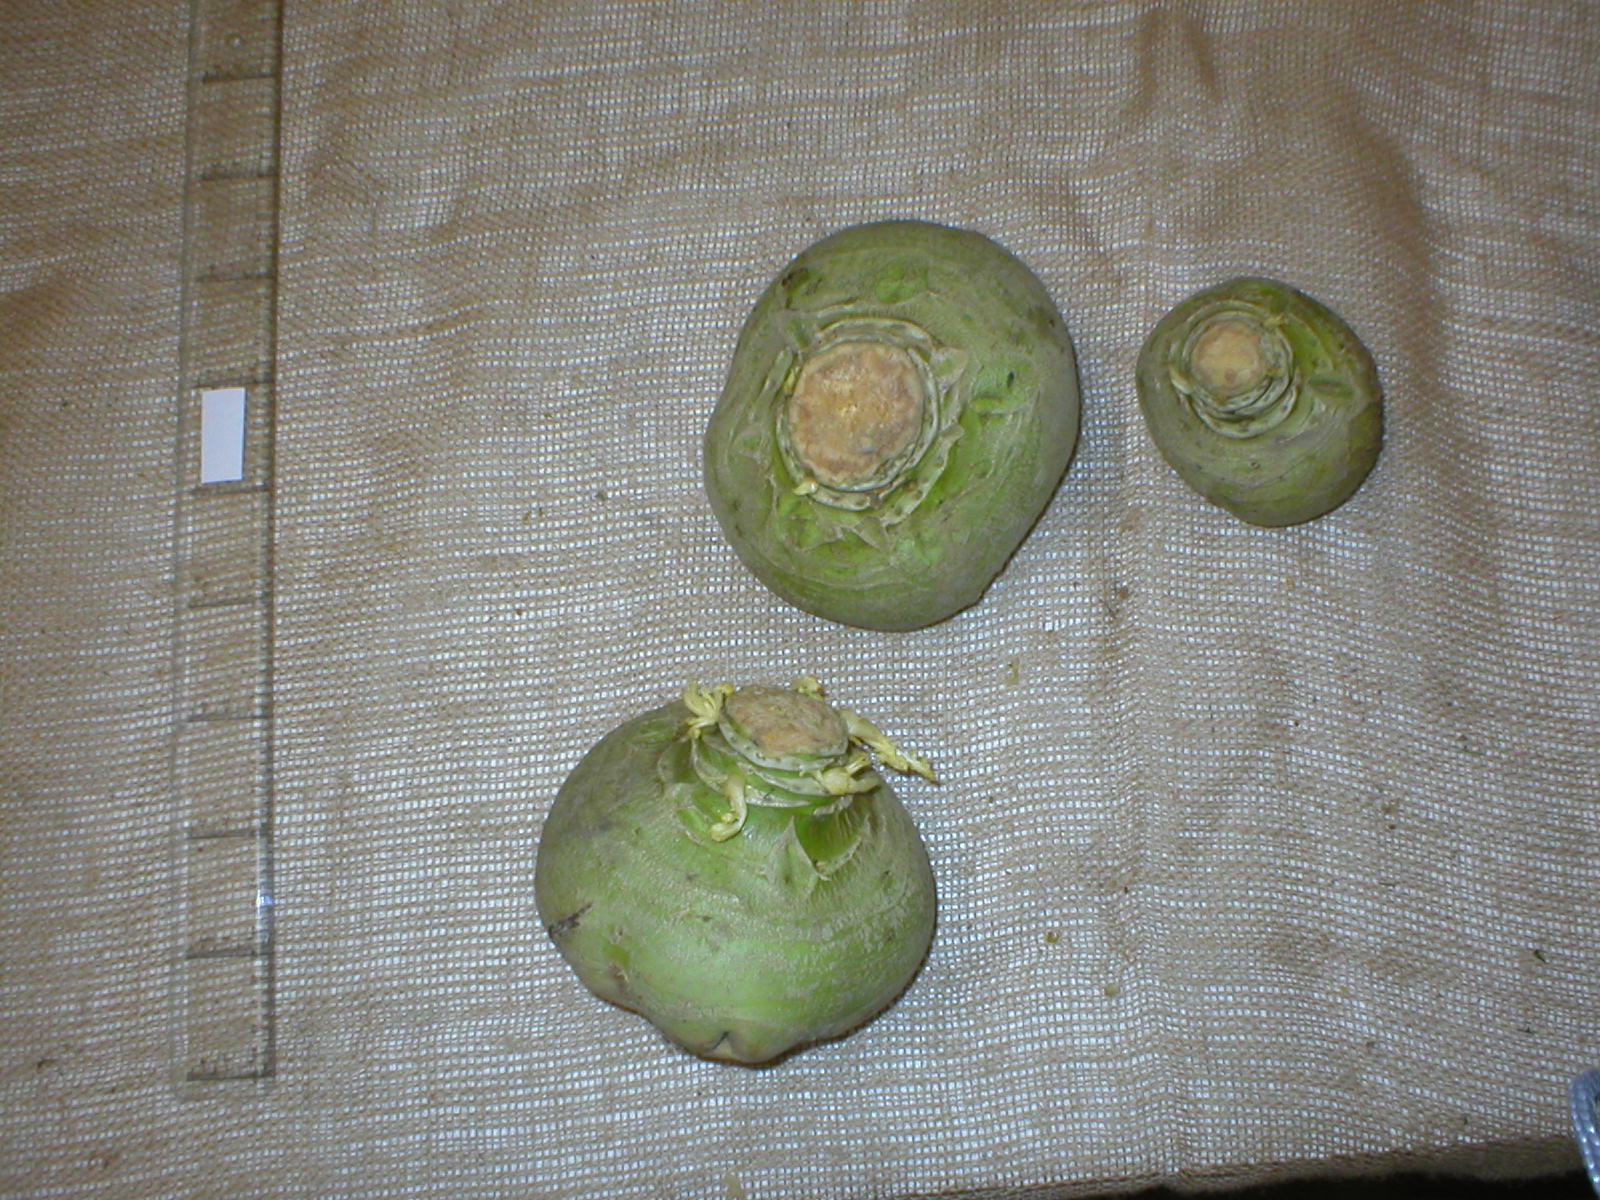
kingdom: Plantae
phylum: Tracheophyta
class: Magnoliopsida
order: Brassicales
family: Brassicaceae
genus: Brassica
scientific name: Brassica napus
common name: Rape
